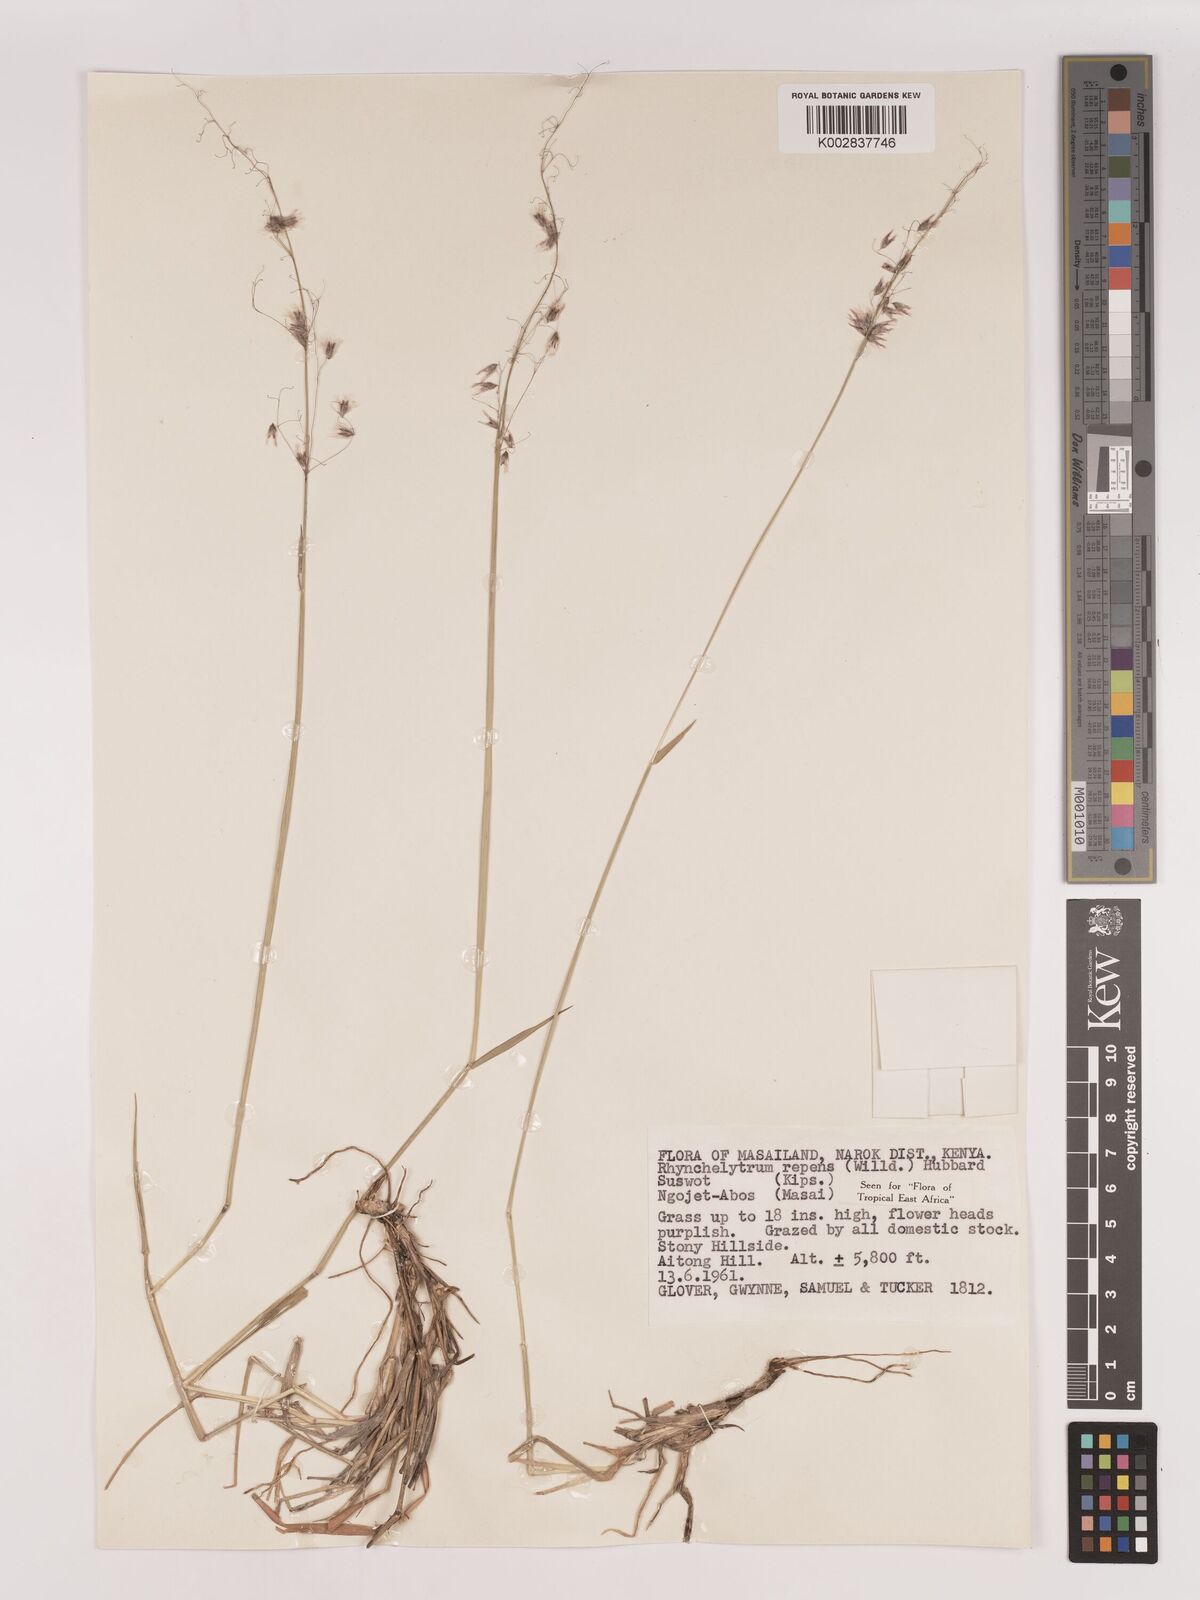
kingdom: Plantae
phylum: Tracheophyta
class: Liliopsida
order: Poales
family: Poaceae
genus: Melinis
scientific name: Melinis repens
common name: Rose natal grass
